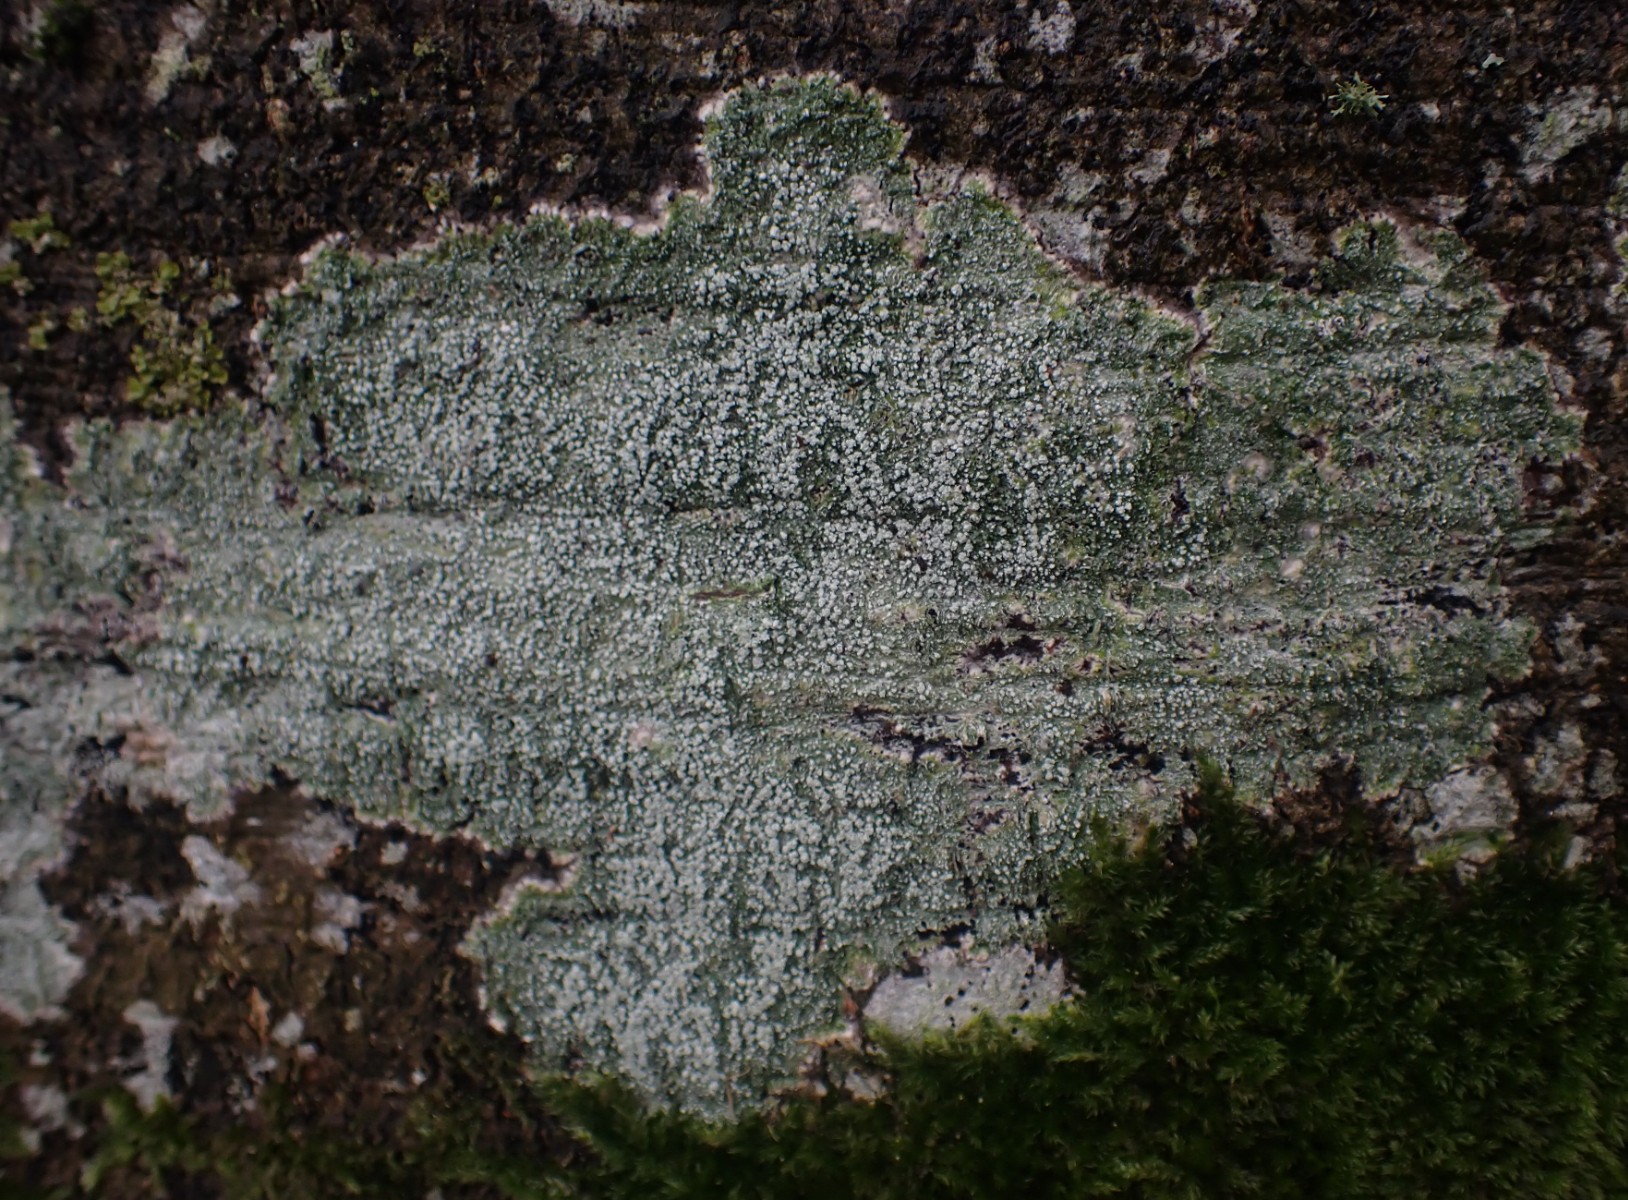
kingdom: Fungi
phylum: Ascomycota
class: Lecanoromycetes
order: Pertusariales
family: Pertusariaceae
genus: Lepra
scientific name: Lepra amara
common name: bitter prikvortelav
